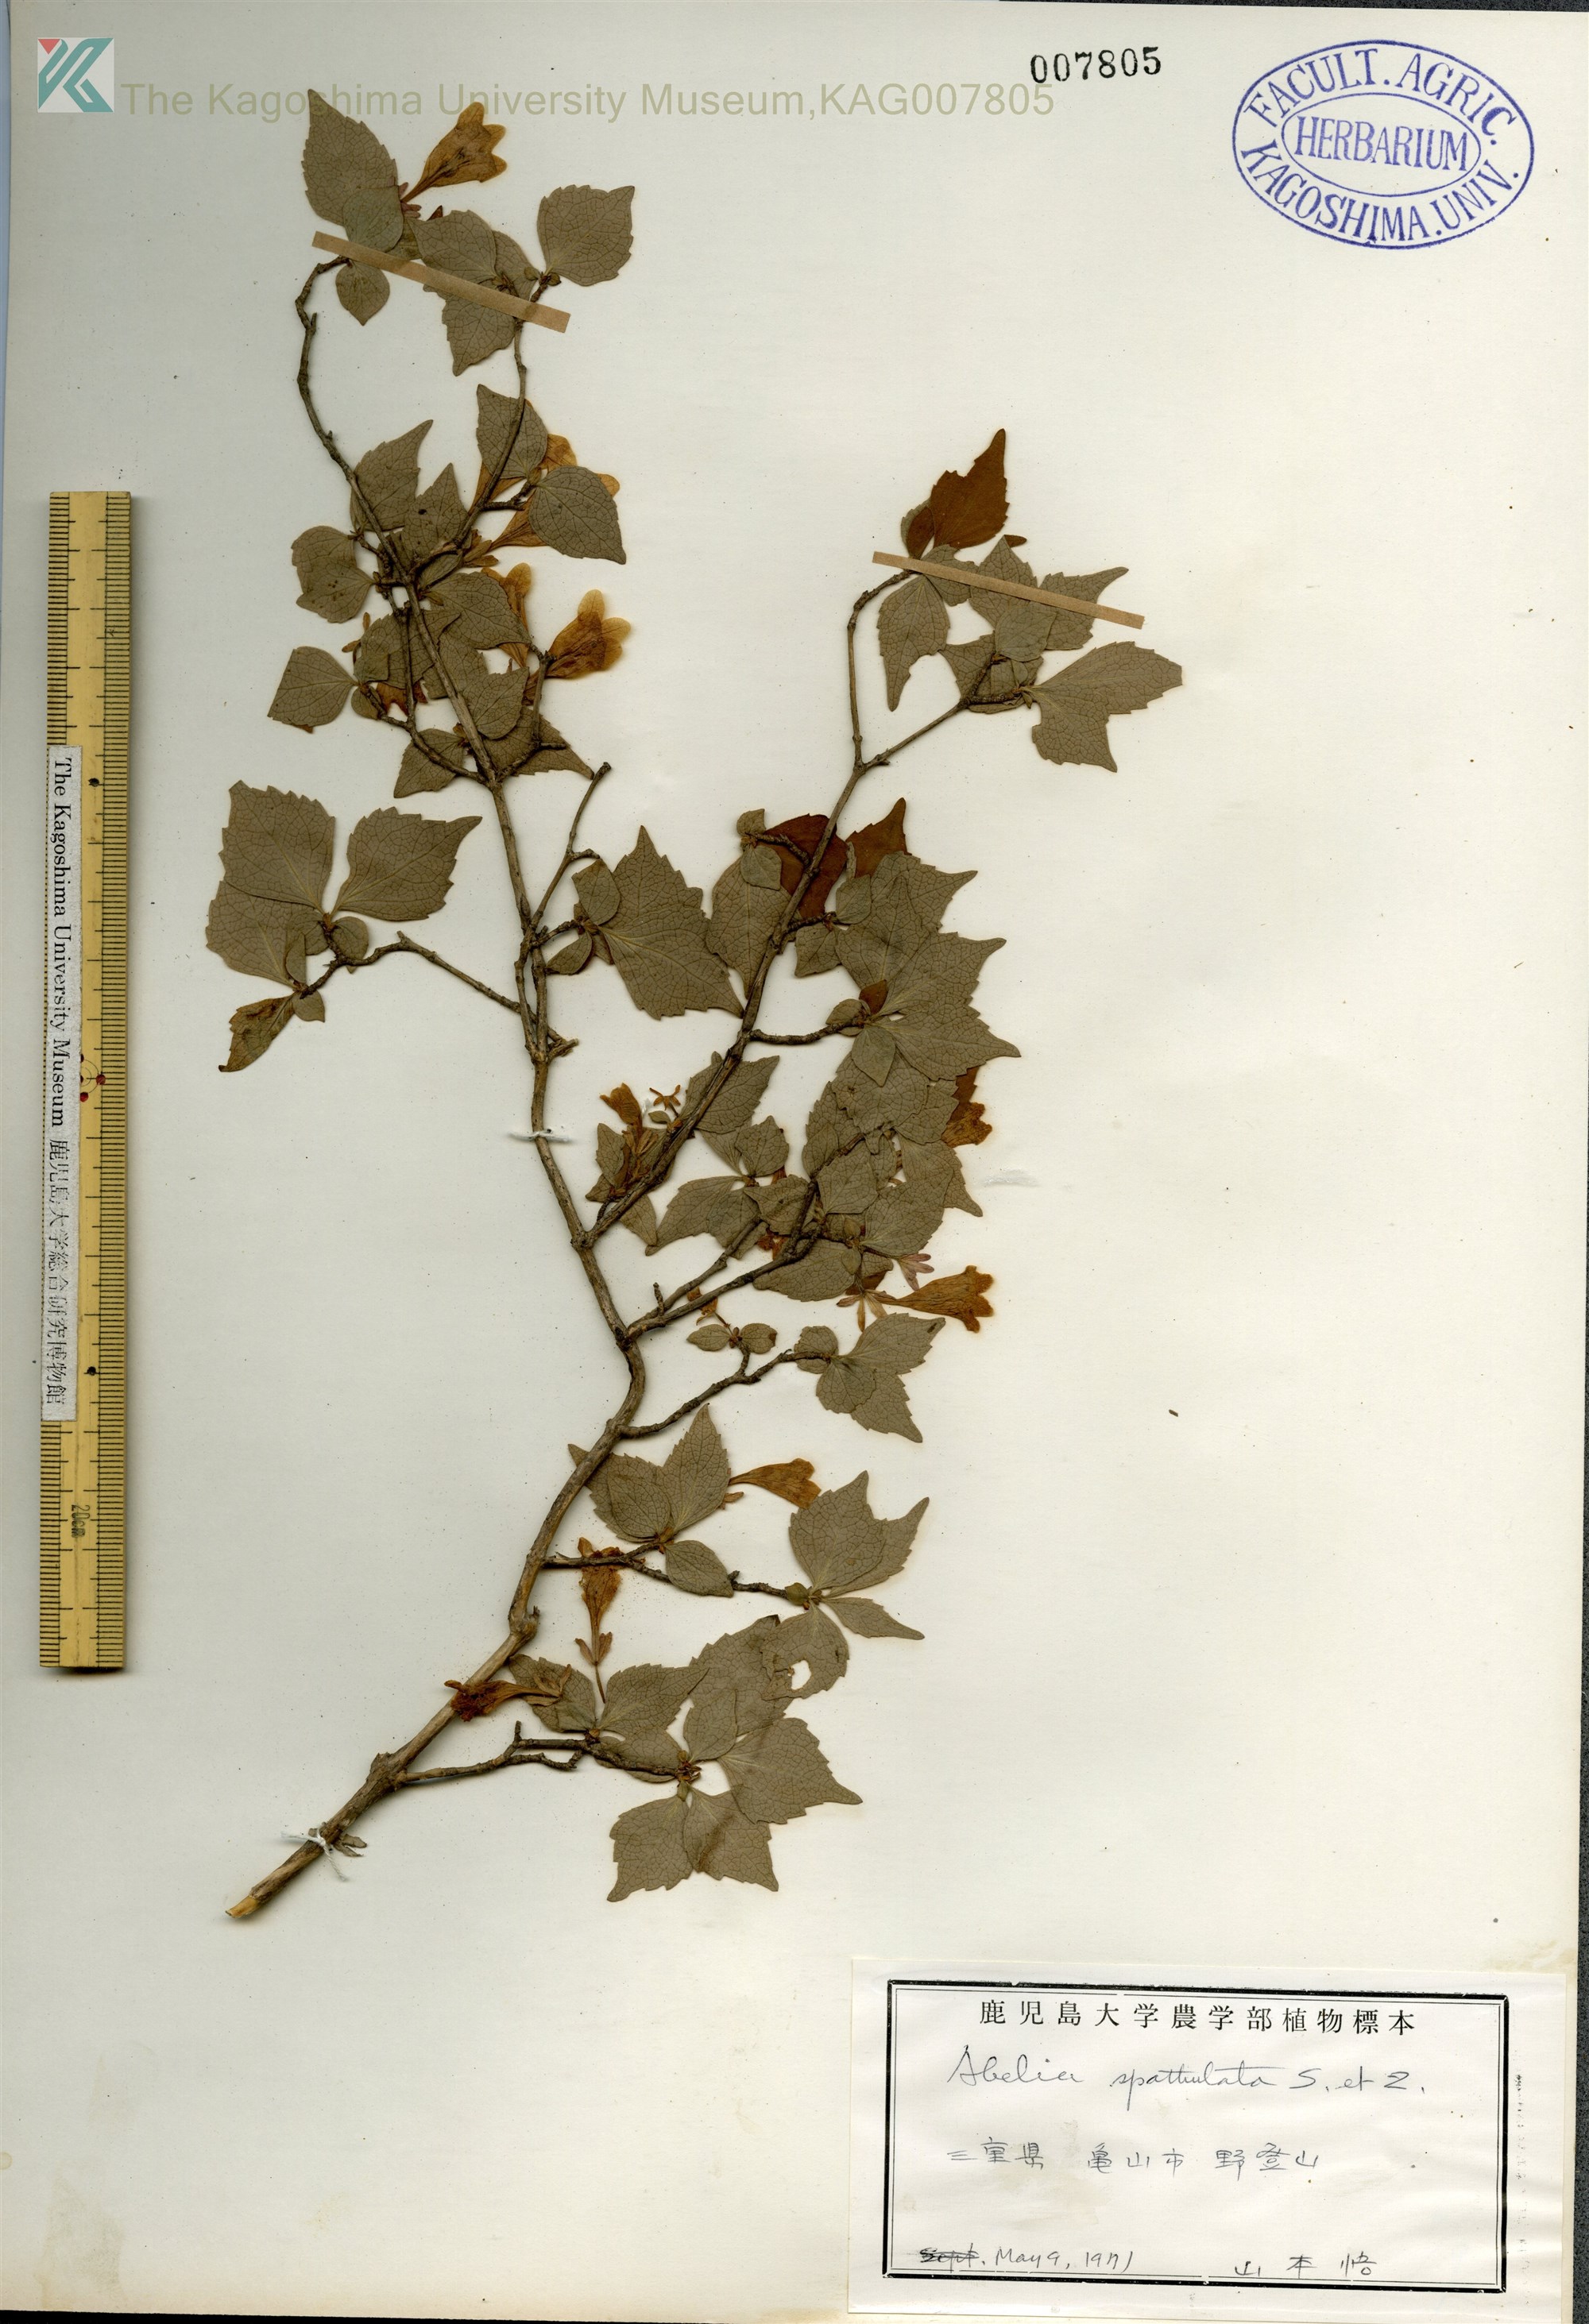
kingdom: Plantae
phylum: Tracheophyta
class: Magnoliopsida
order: Dipsacales
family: Caprifoliaceae
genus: Diabelia
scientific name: Diabelia spathulata
